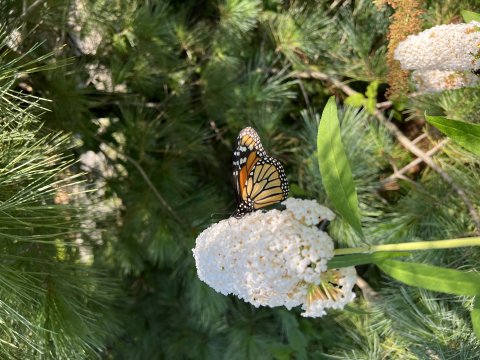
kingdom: Animalia
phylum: Arthropoda
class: Insecta
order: Lepidoptera
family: Nymphalidae
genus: Danaus
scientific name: Danaus plexippus
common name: Monarch
